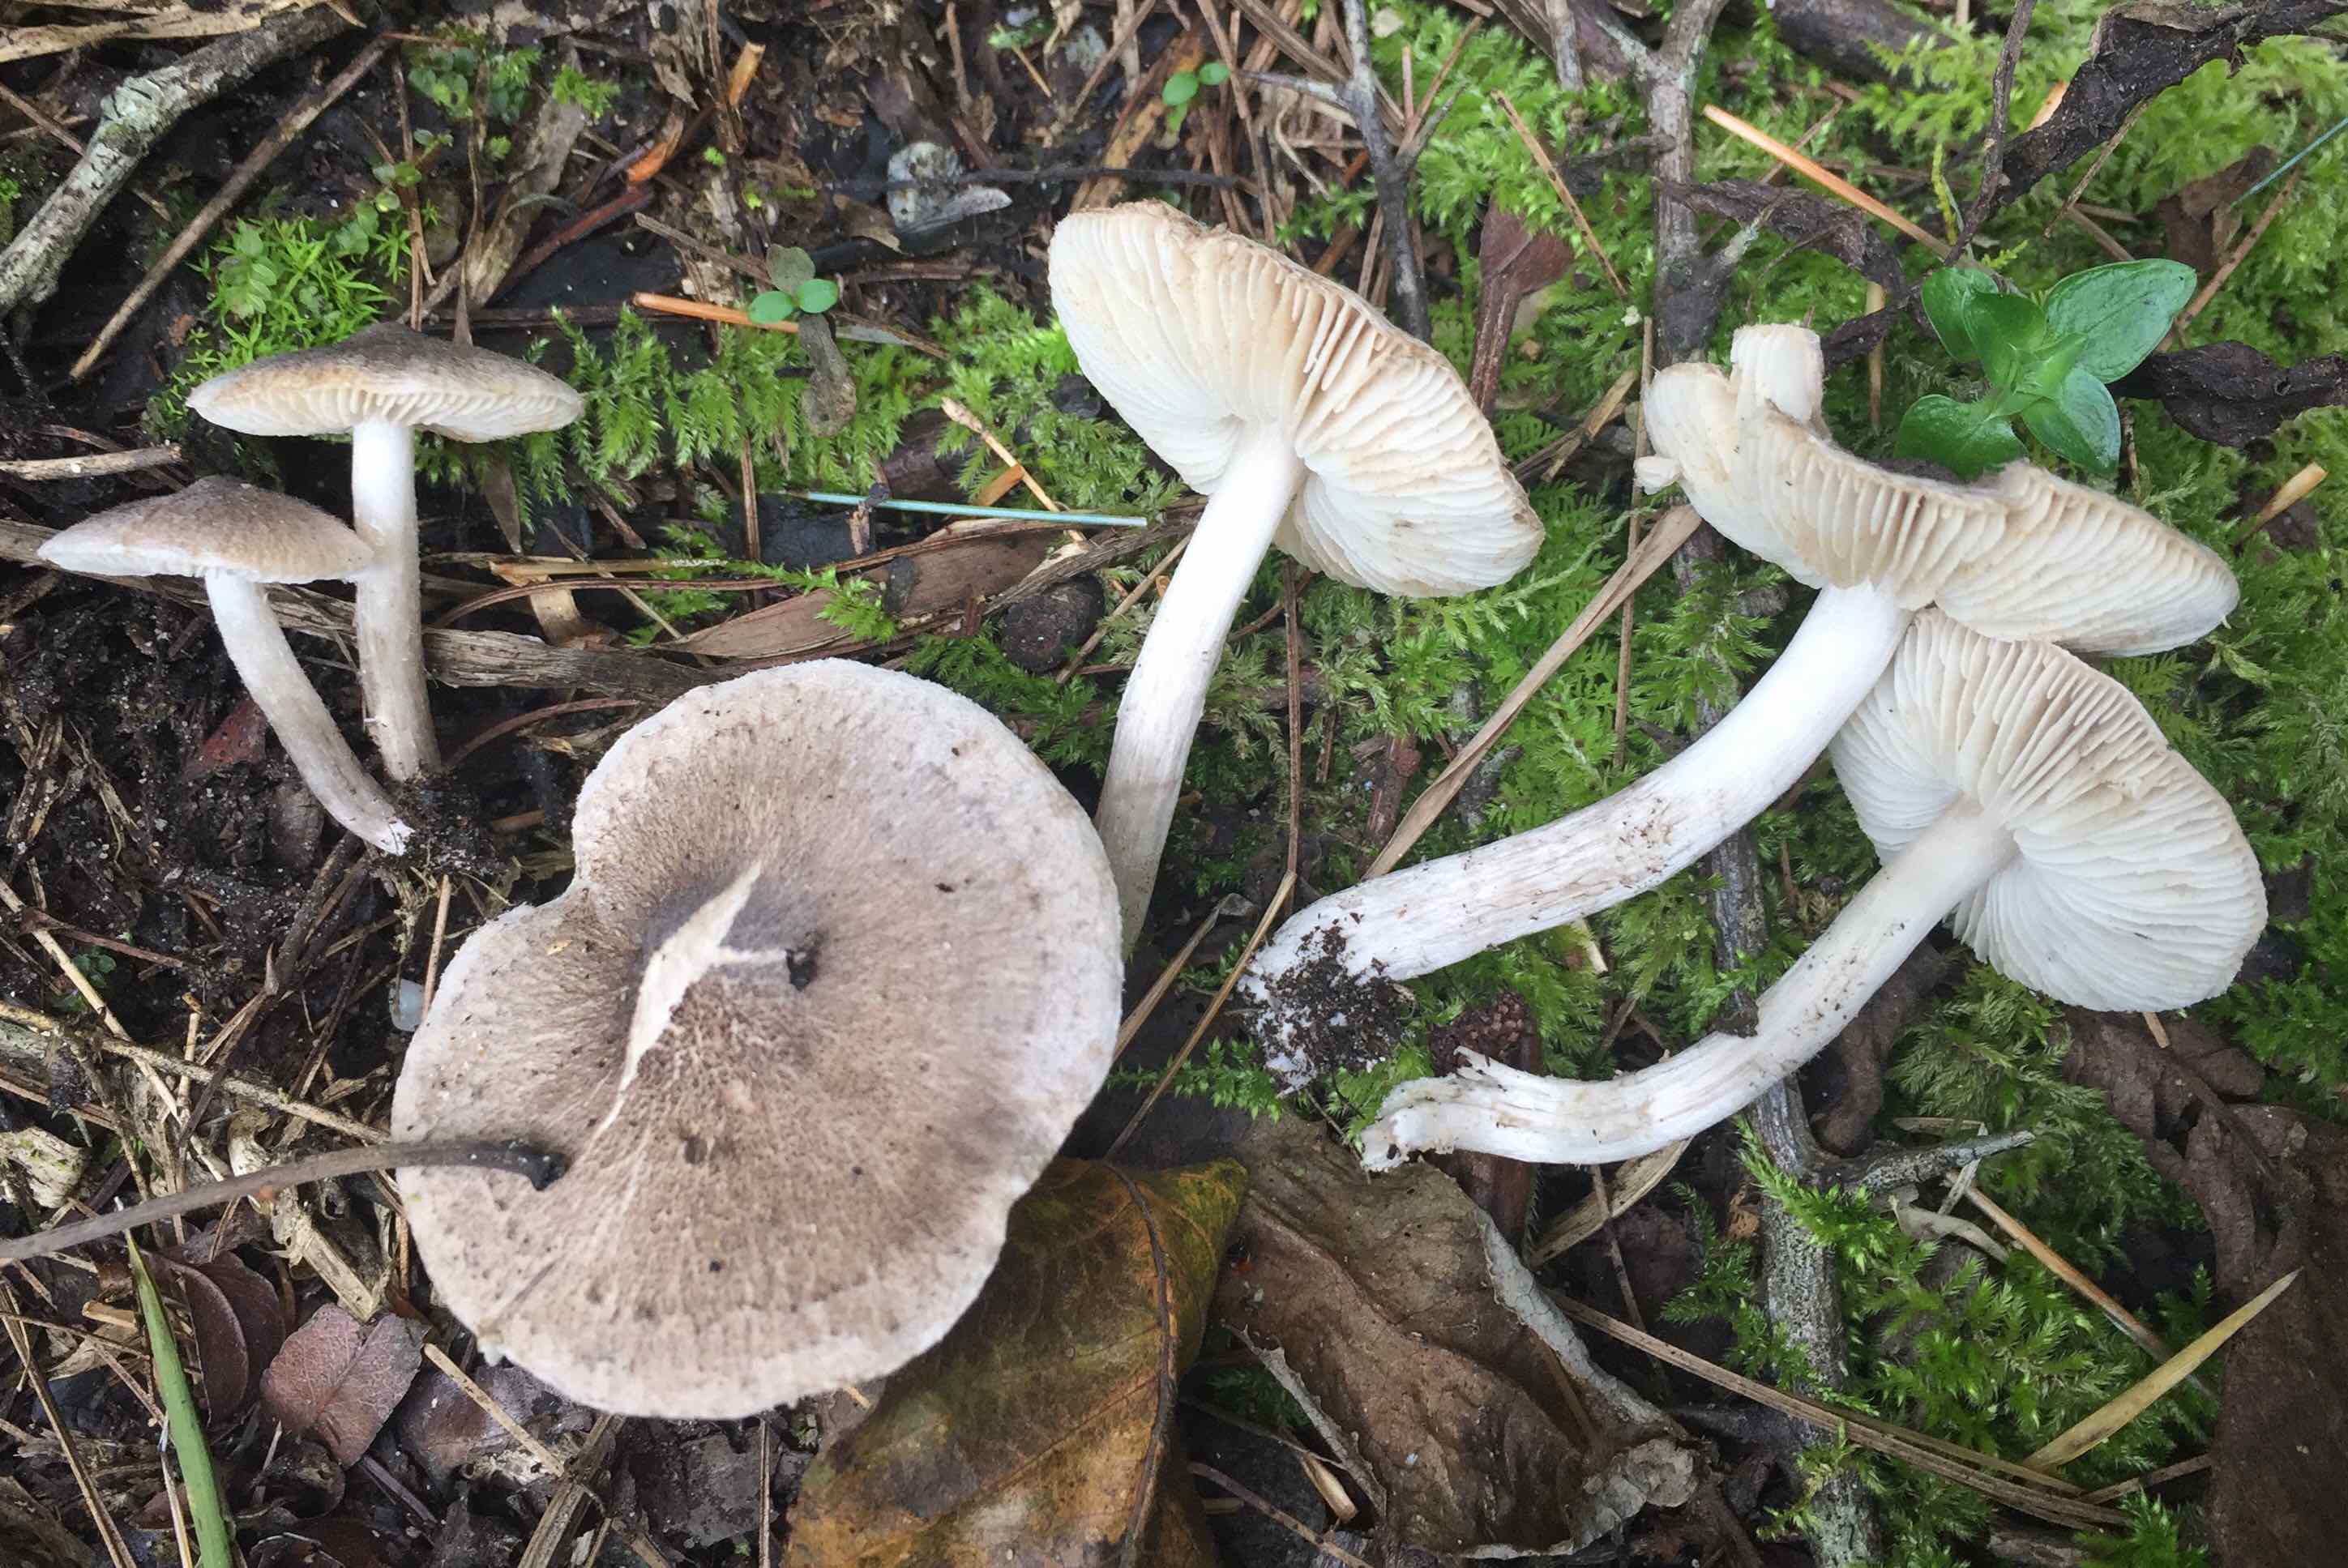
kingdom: Fungi
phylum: Basidiomycota
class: Agaricomycetes
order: Agaricales
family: Tricholomataceae
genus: Tricholoma
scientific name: Tricholoma terreum
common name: jordfarvet ridderhat
